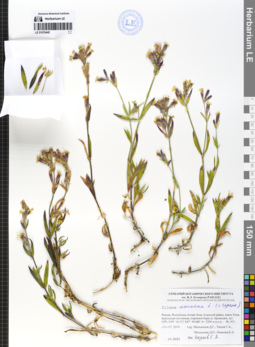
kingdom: Plantae
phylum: Tracheophyta
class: Magnoliopsida
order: Caryophyllales
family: Caryophyllaceae
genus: Silene
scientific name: Silene amoena
